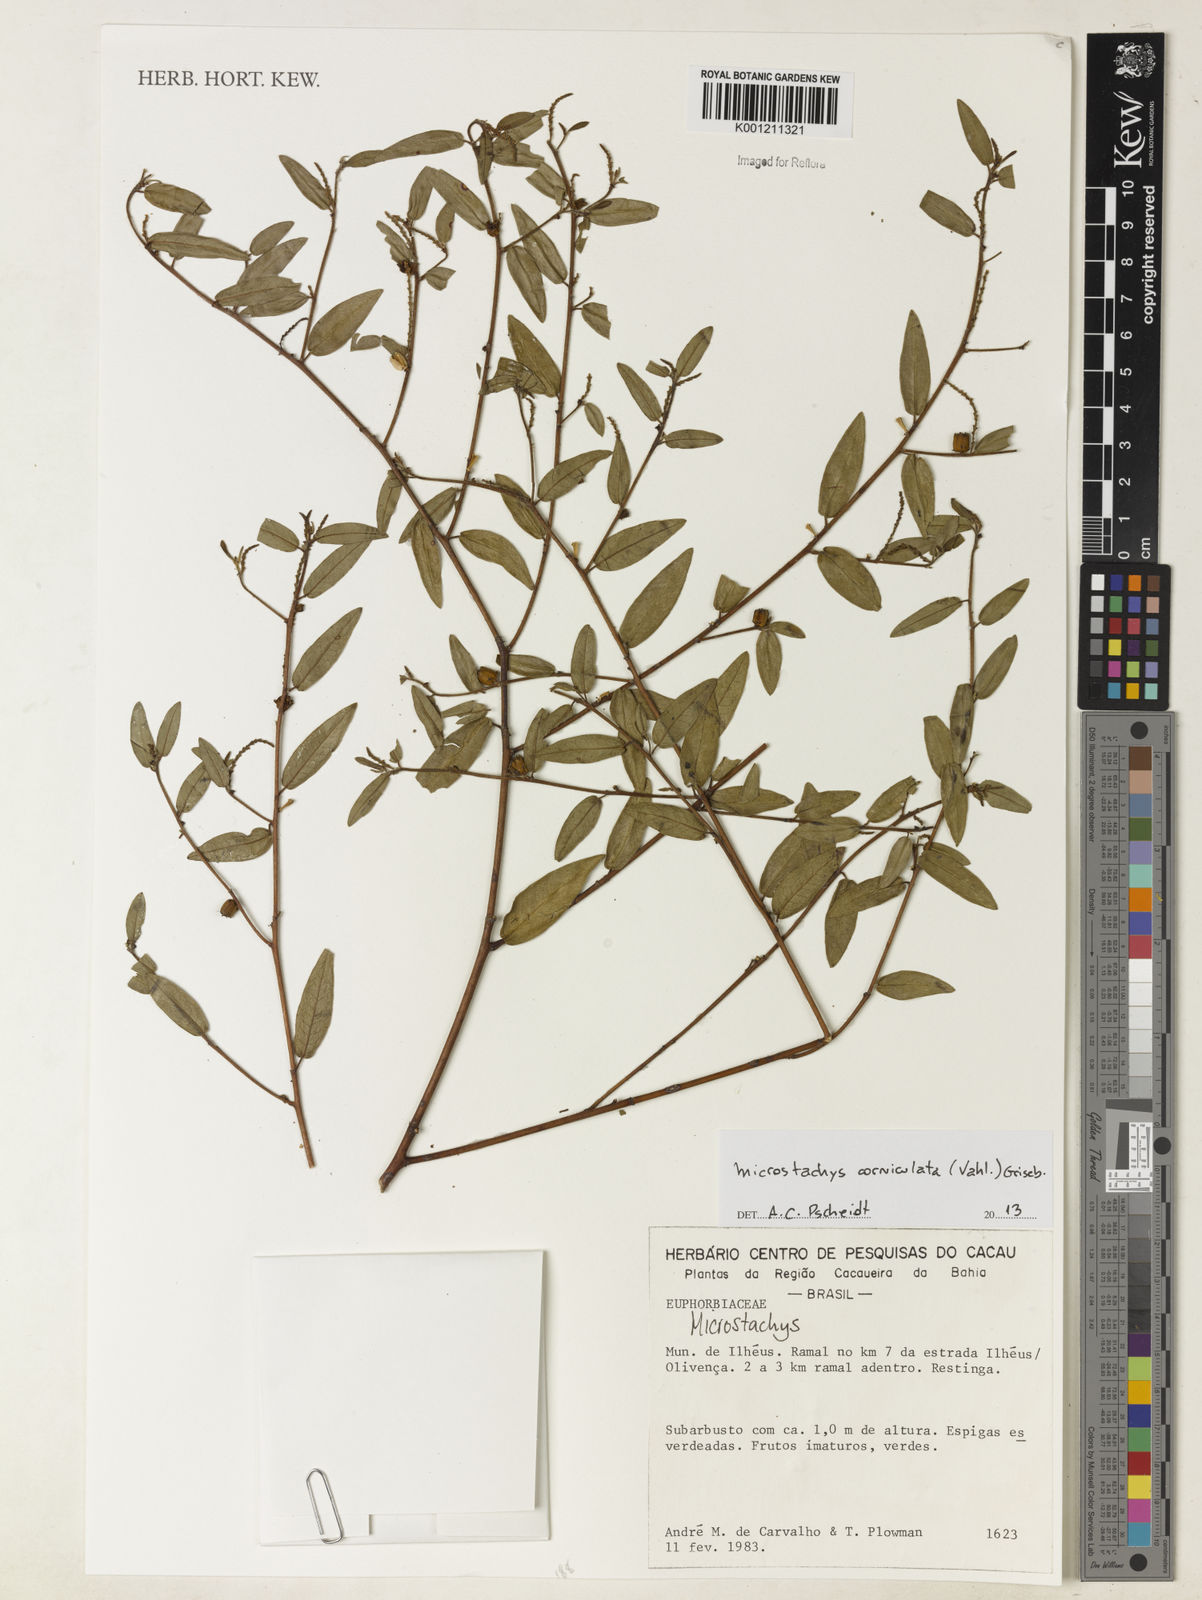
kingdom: Plantae
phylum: Tracheophyta
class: Magnoliopsida
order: Malpighiales
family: Euphorbiaceae
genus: Microstachys
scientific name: Microstachys corniculata
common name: Hato tejas
